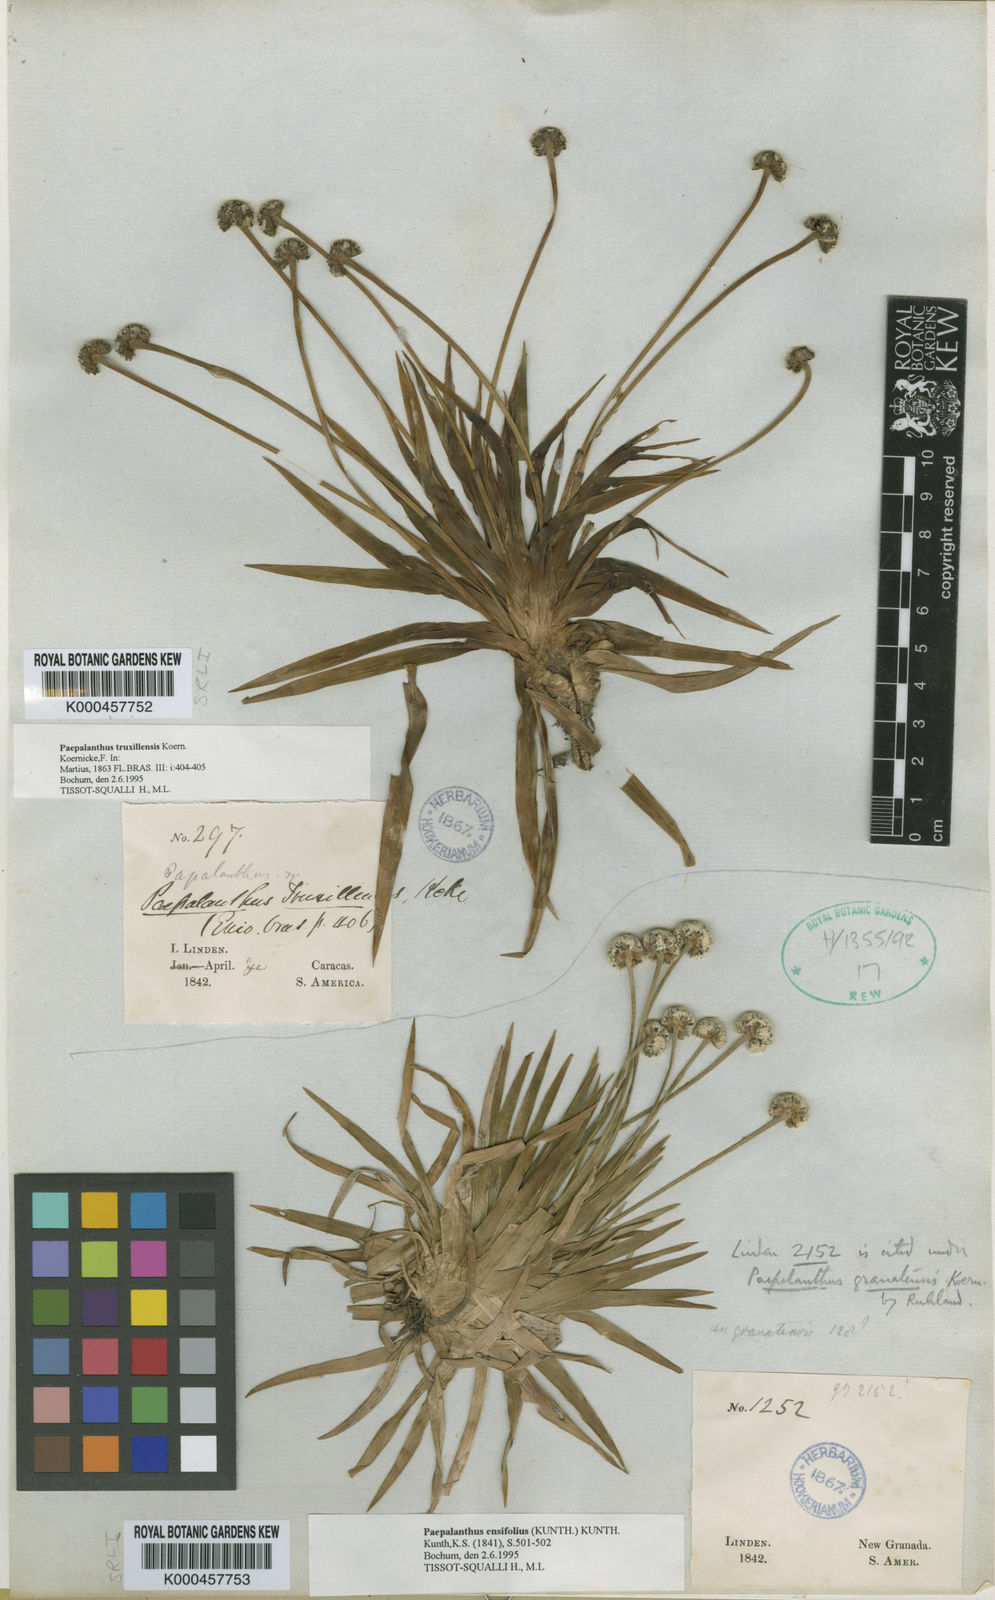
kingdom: Plantae
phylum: Tracheophyta
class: Liliopsida
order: Poales
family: Eriocaulaceae
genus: Paepalanthus
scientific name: Paepalanthus ensifolius
